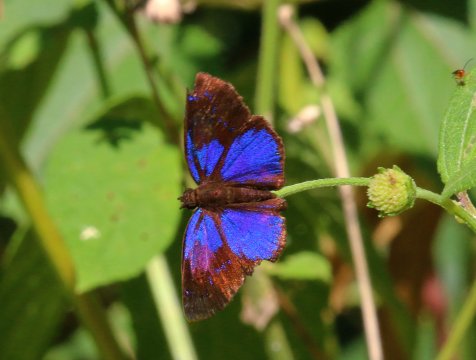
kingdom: Animalia
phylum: Arthropoda
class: Insecta
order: Lepidoptera
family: Hesperiidae
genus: Paches
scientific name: Paches loxus
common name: Glorious Blue-Skipper
